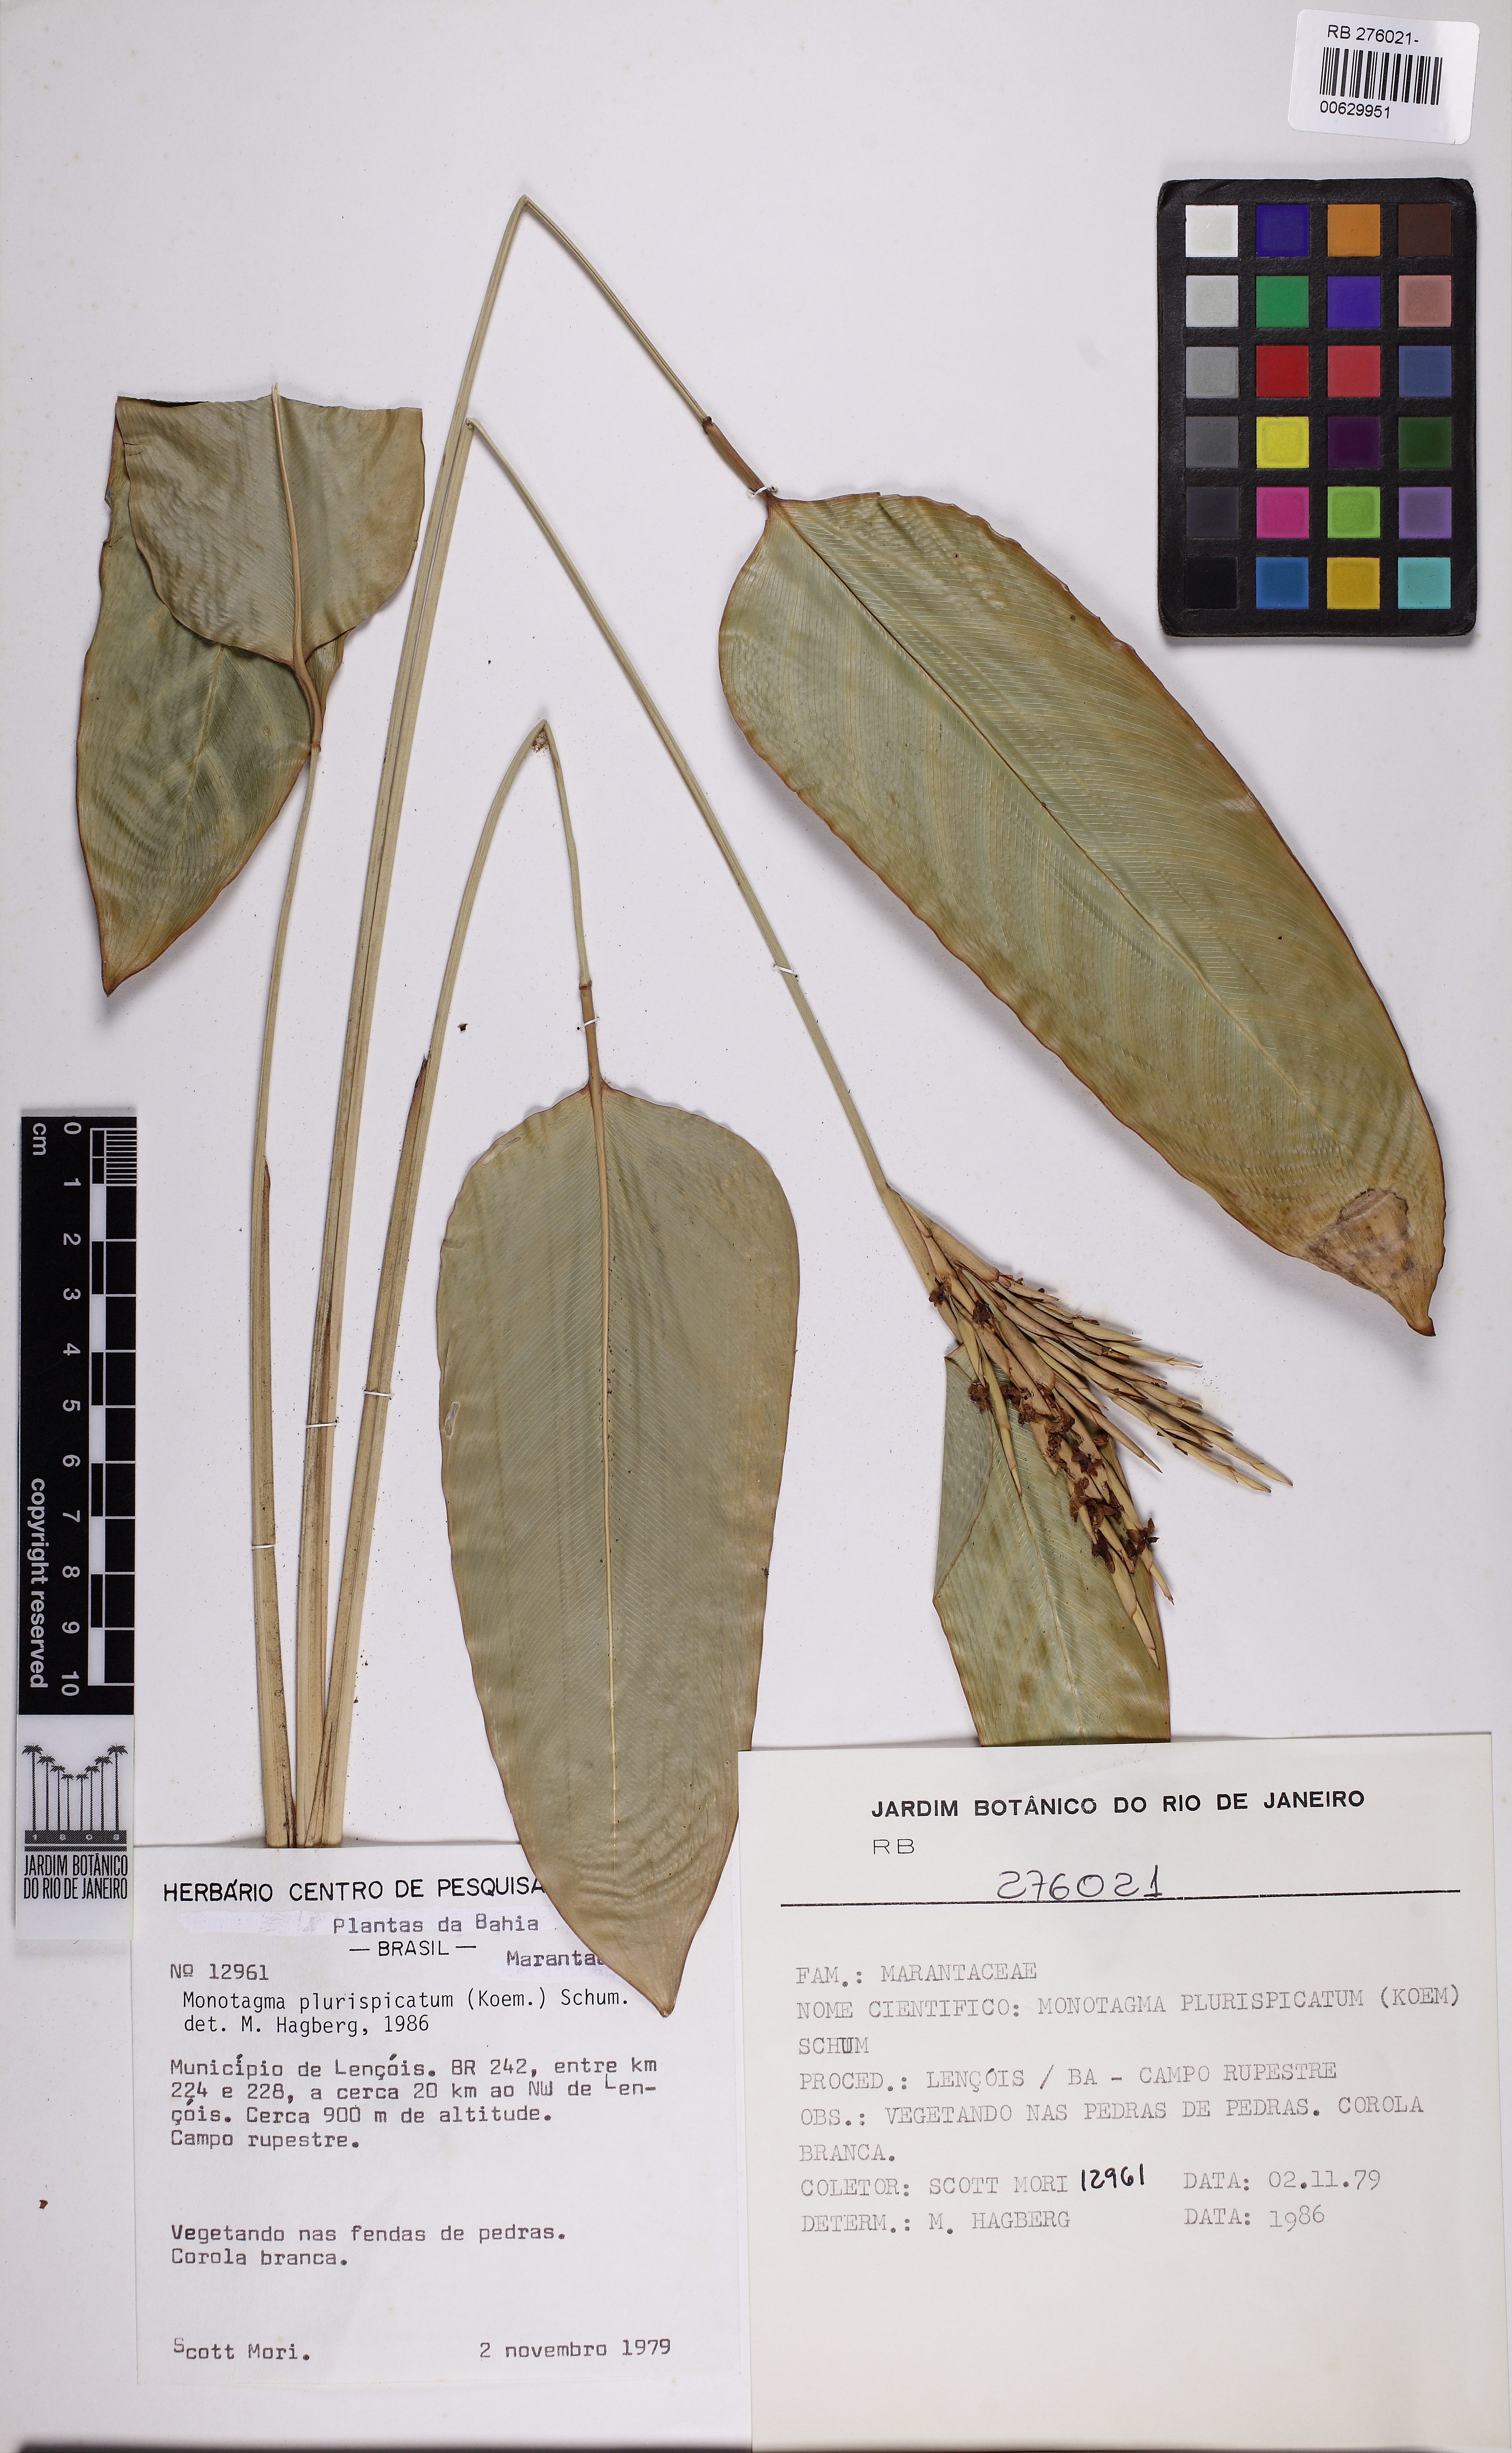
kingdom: Plantae
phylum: Tracheophyta
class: Liliopsida
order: Zingiberales
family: Marantaceae
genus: Monotagma
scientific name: Monotagma plurispicatum
